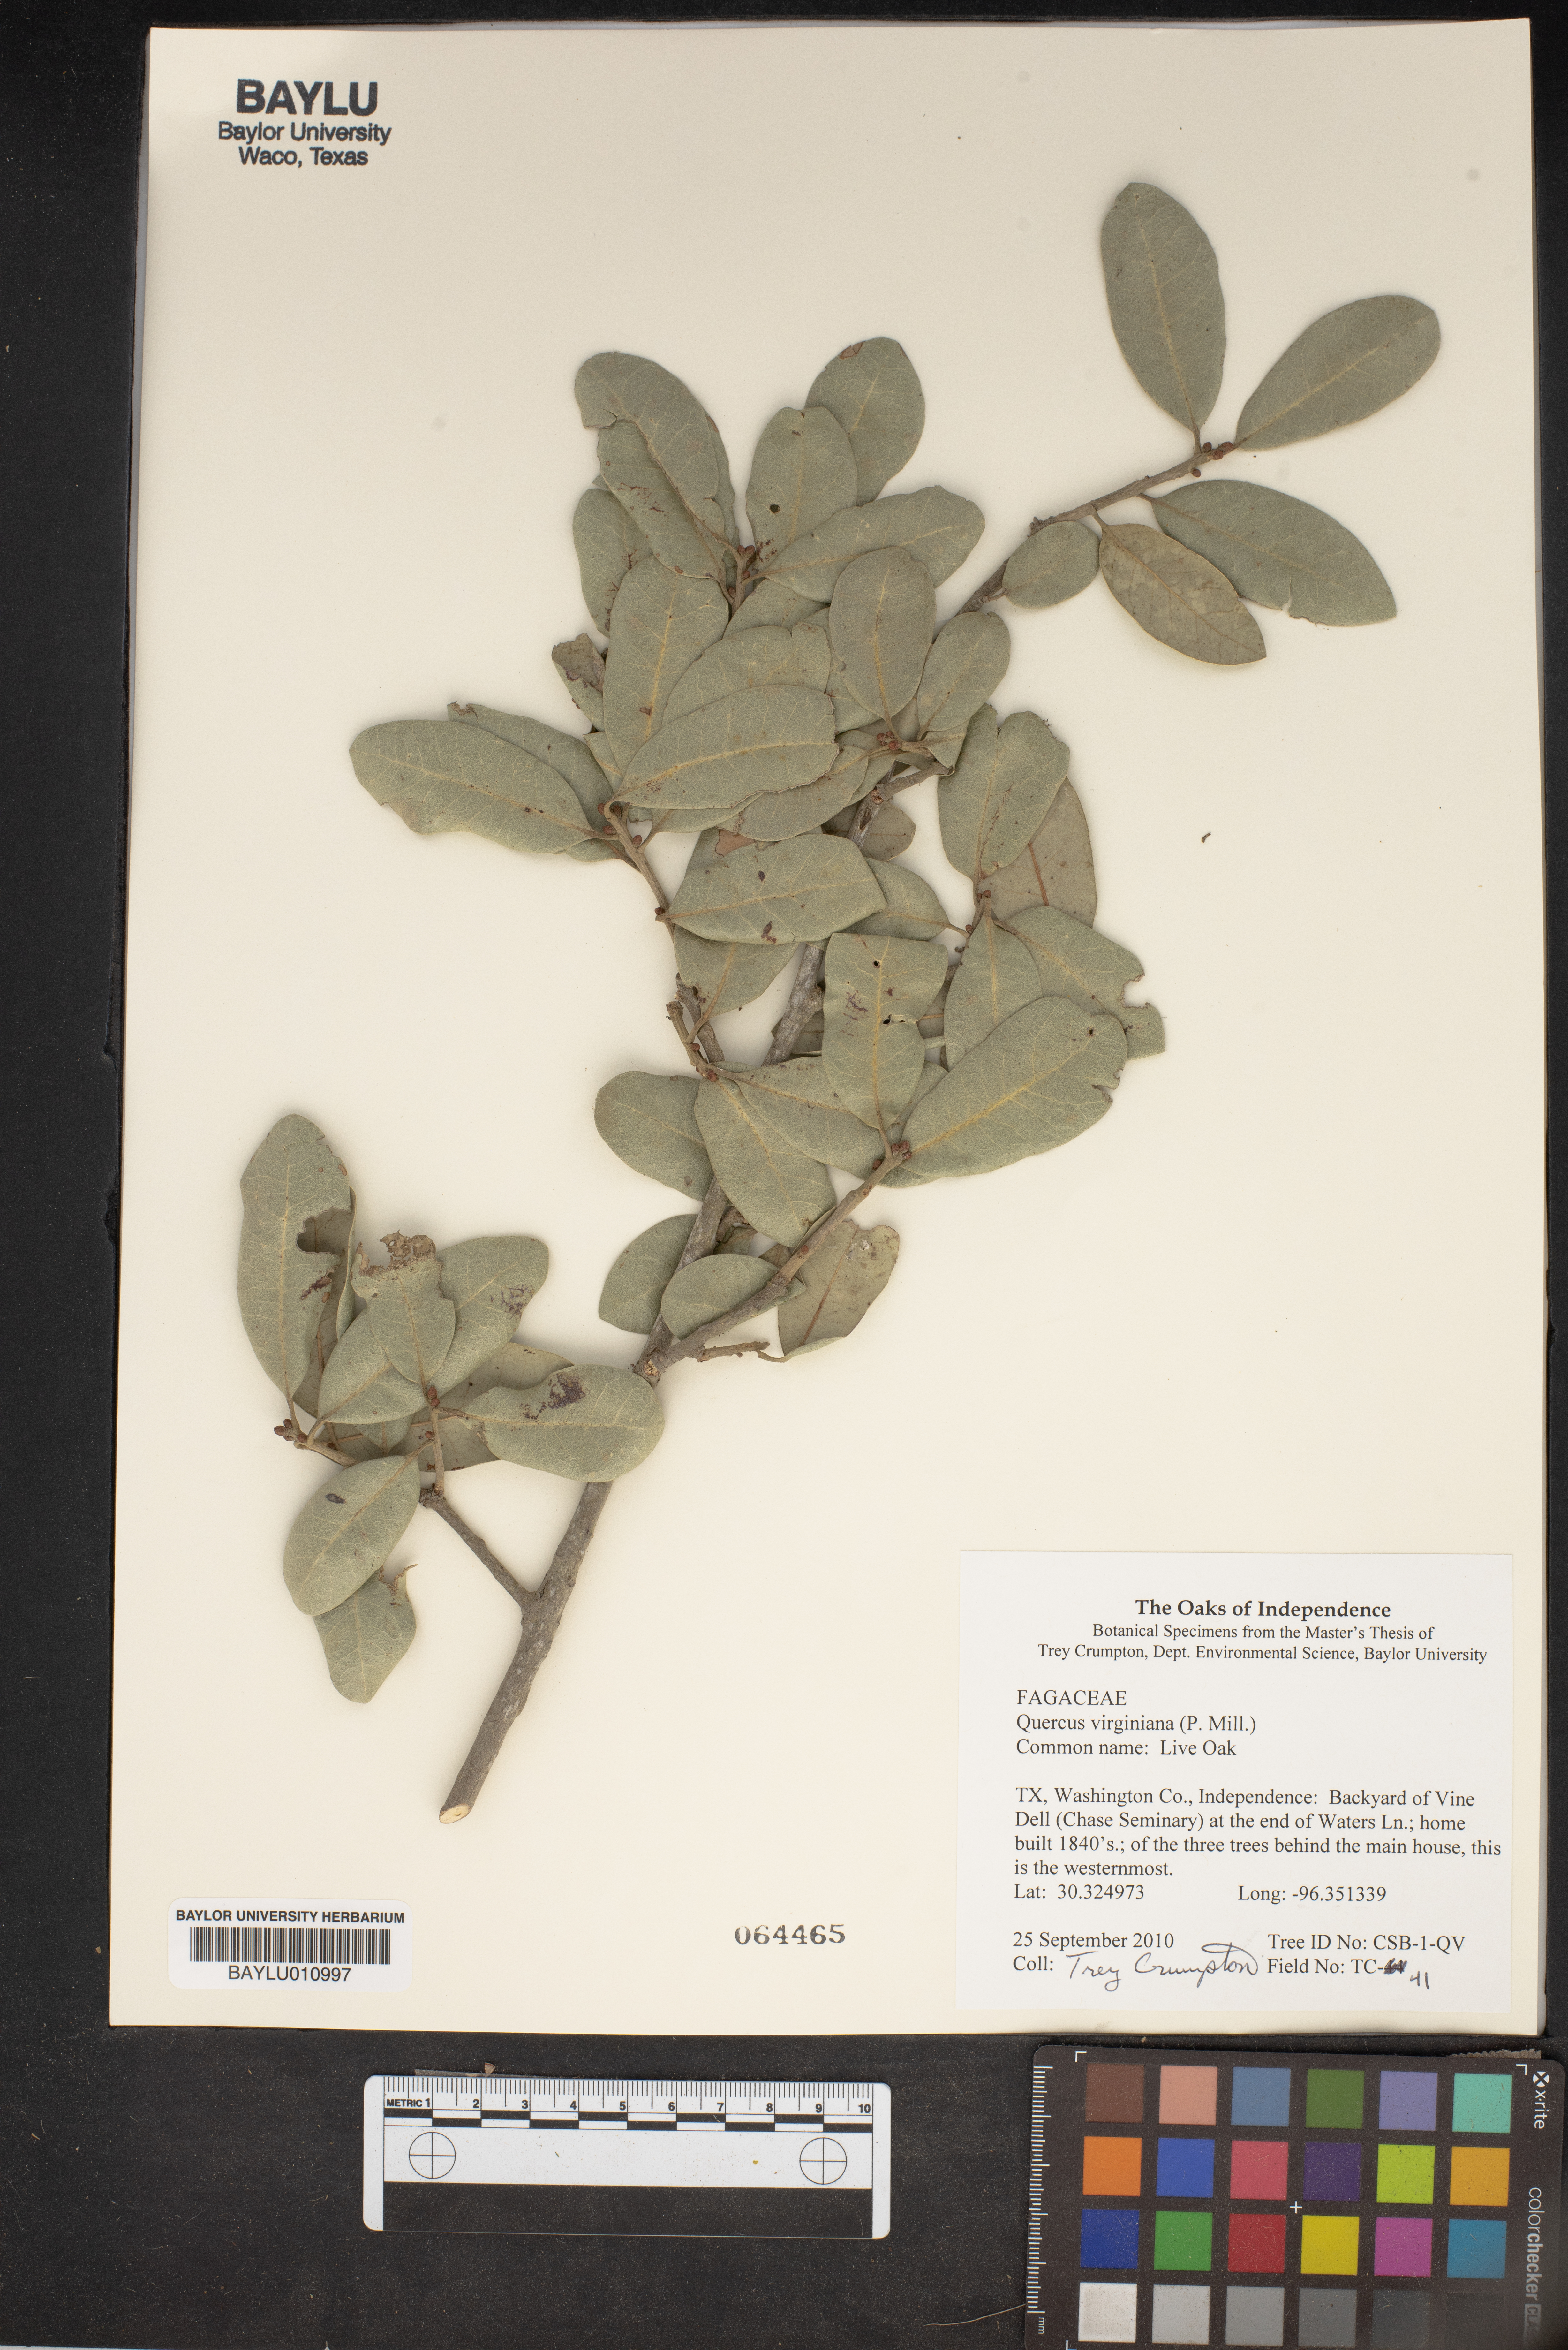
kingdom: Plantae
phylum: Tracheophyta
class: Magnoliopsida
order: Fagales
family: Fagaceae
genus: Quercus
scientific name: Quercus virginiana
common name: Southern live oak
